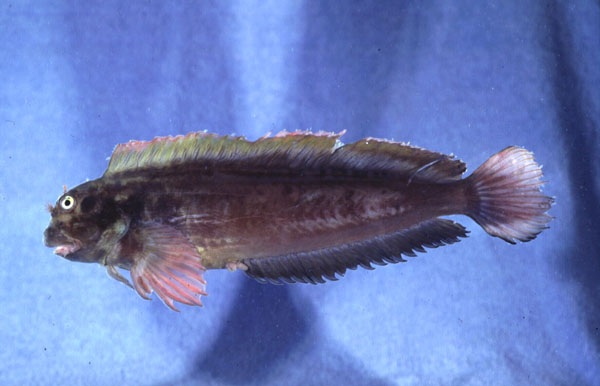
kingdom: Animalia
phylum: Chordata
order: Perciformes
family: Blenniidae
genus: Ophioblennius
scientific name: Ophioblennius atlanticus
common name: Redlip blenny
